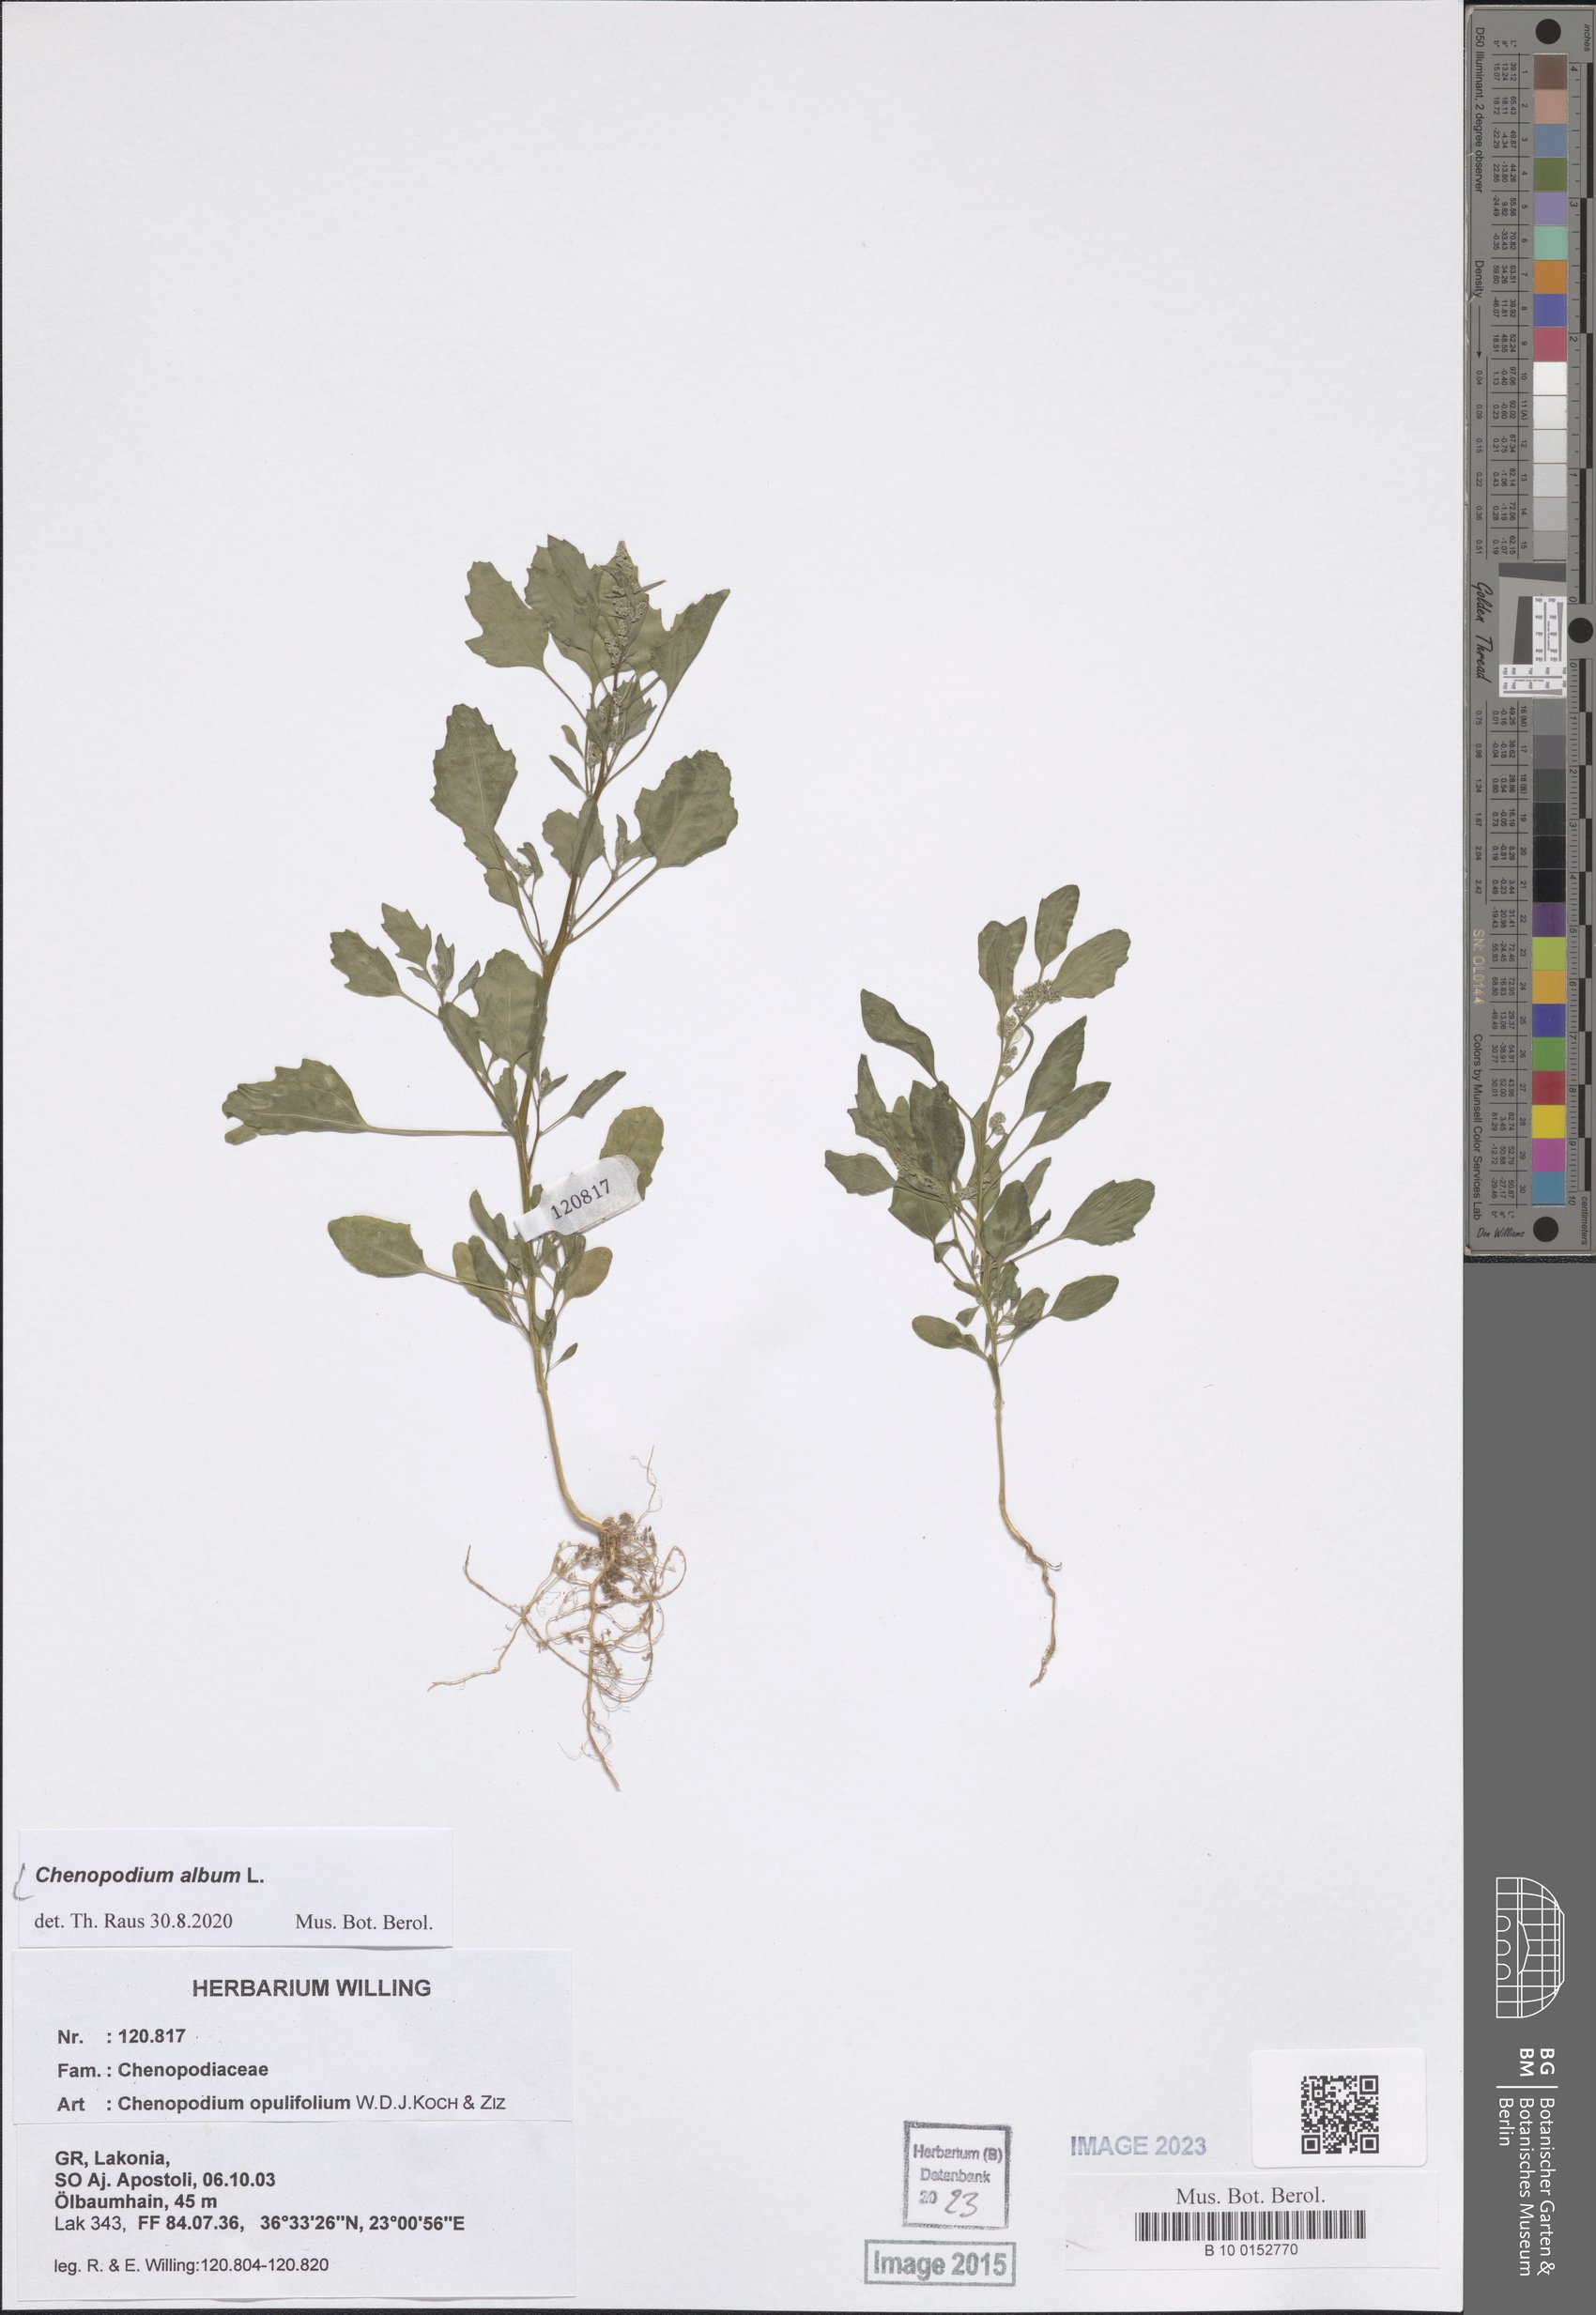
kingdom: Plantae
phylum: Tracheophyta
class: Magnoliopsida
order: Caryophyllales
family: Amaranthaceae
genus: Chenopodium
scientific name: Chenopodium album
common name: Fat-hen
